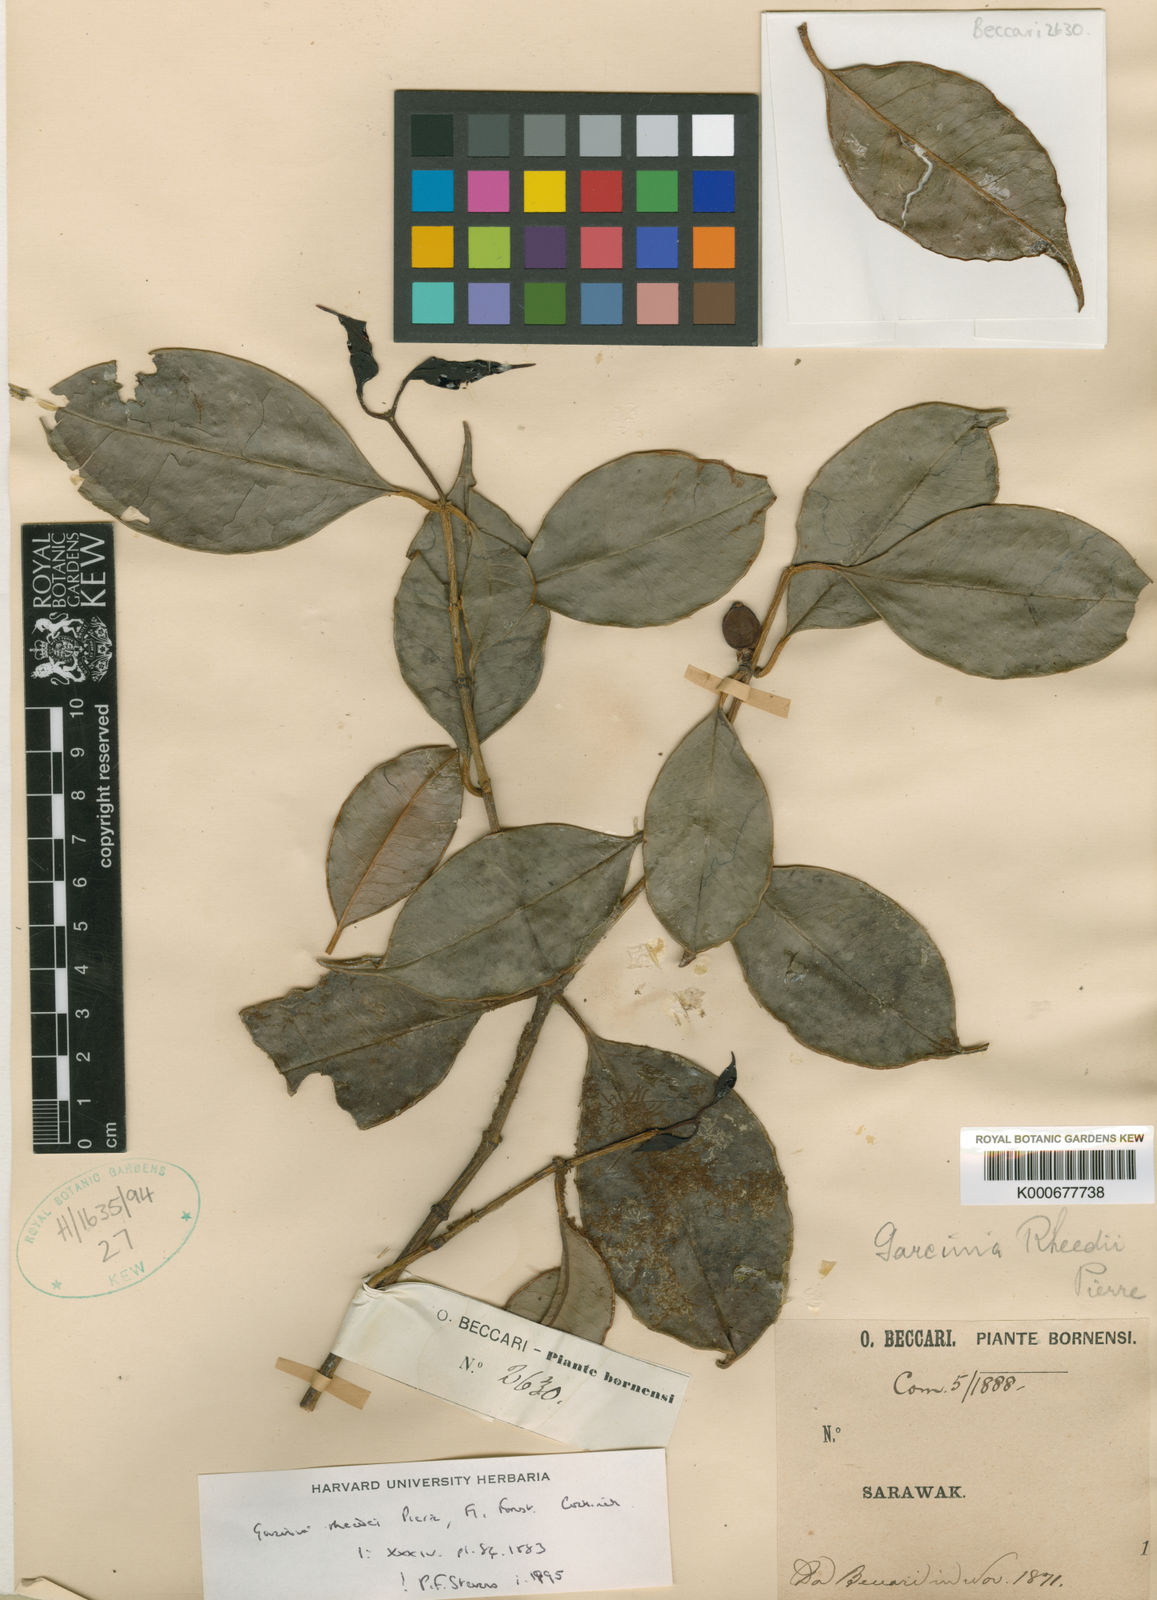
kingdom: Plantae
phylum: Tracheophyta
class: Magnoliopsida
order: Malpighiales
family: Clusiaceae
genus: Garcinia
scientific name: Garcinia rheedei
